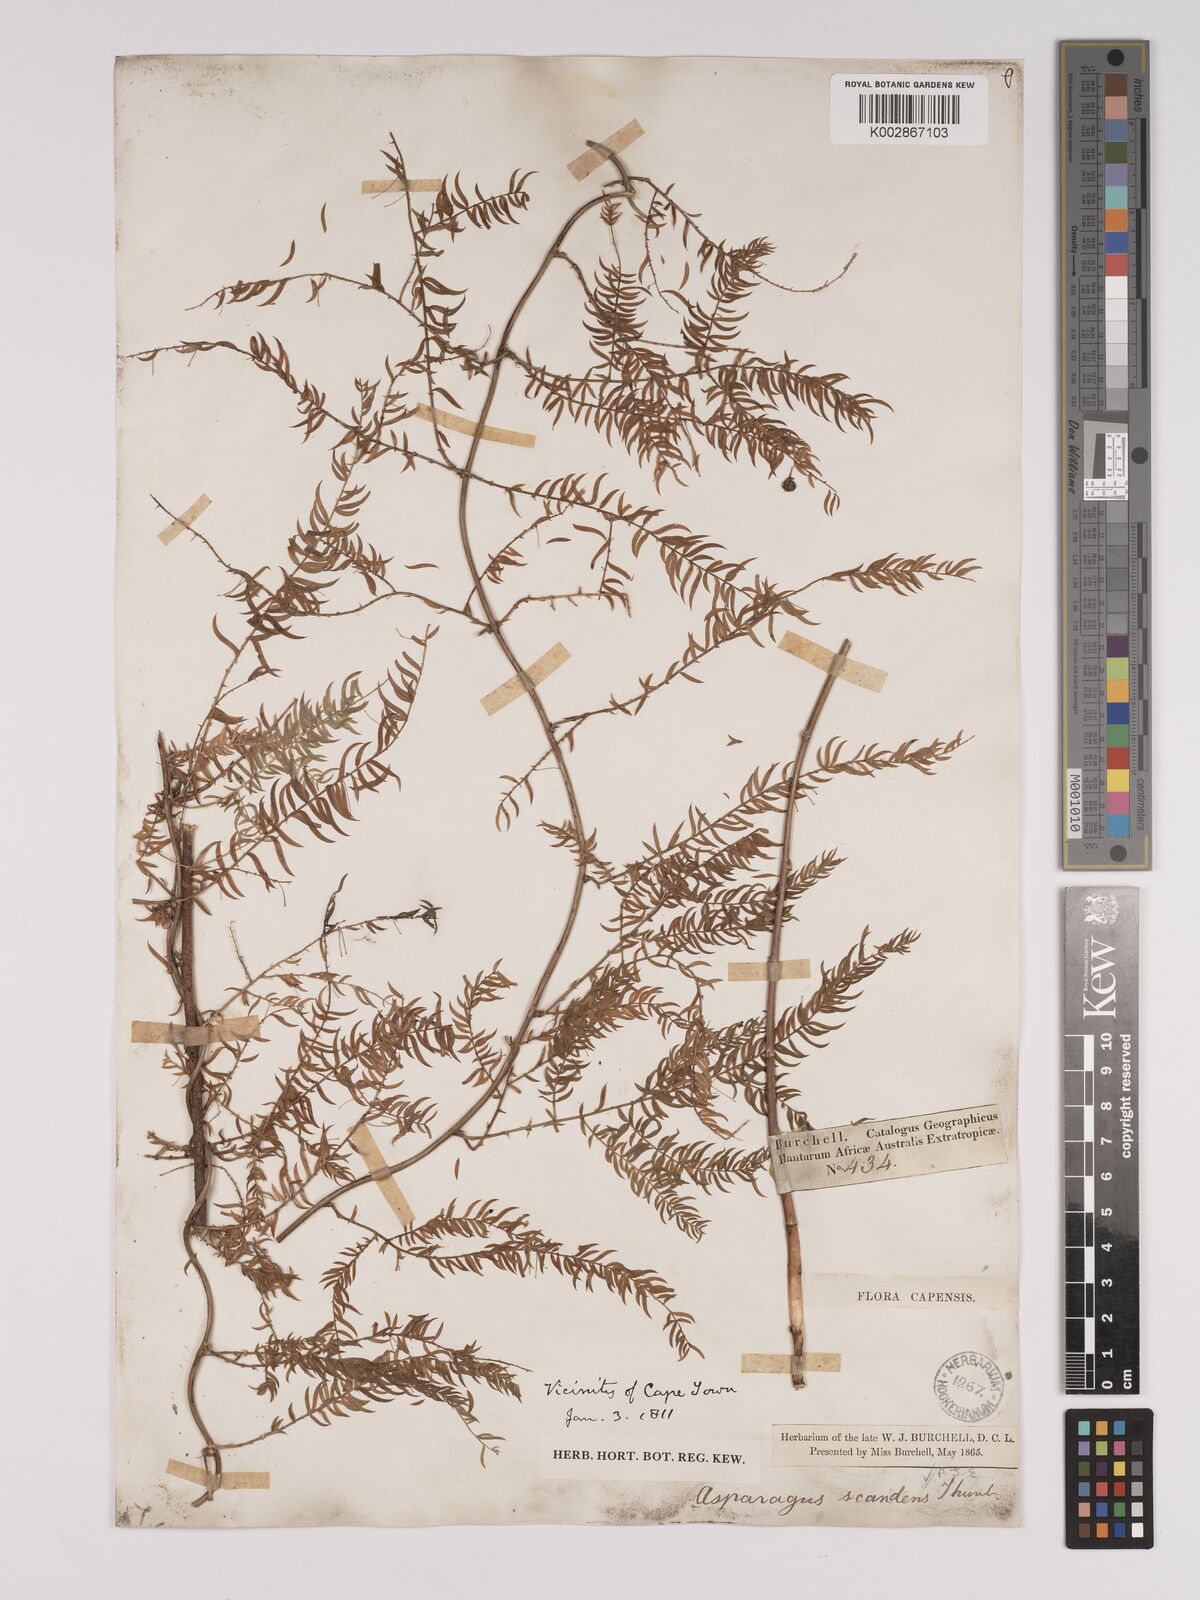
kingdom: Plantae
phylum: Tracheophyta
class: Liliopsida
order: Asparagales
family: Asparagaceae
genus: Asparagus
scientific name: Asparagus scandens
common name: Asparagus-fern
